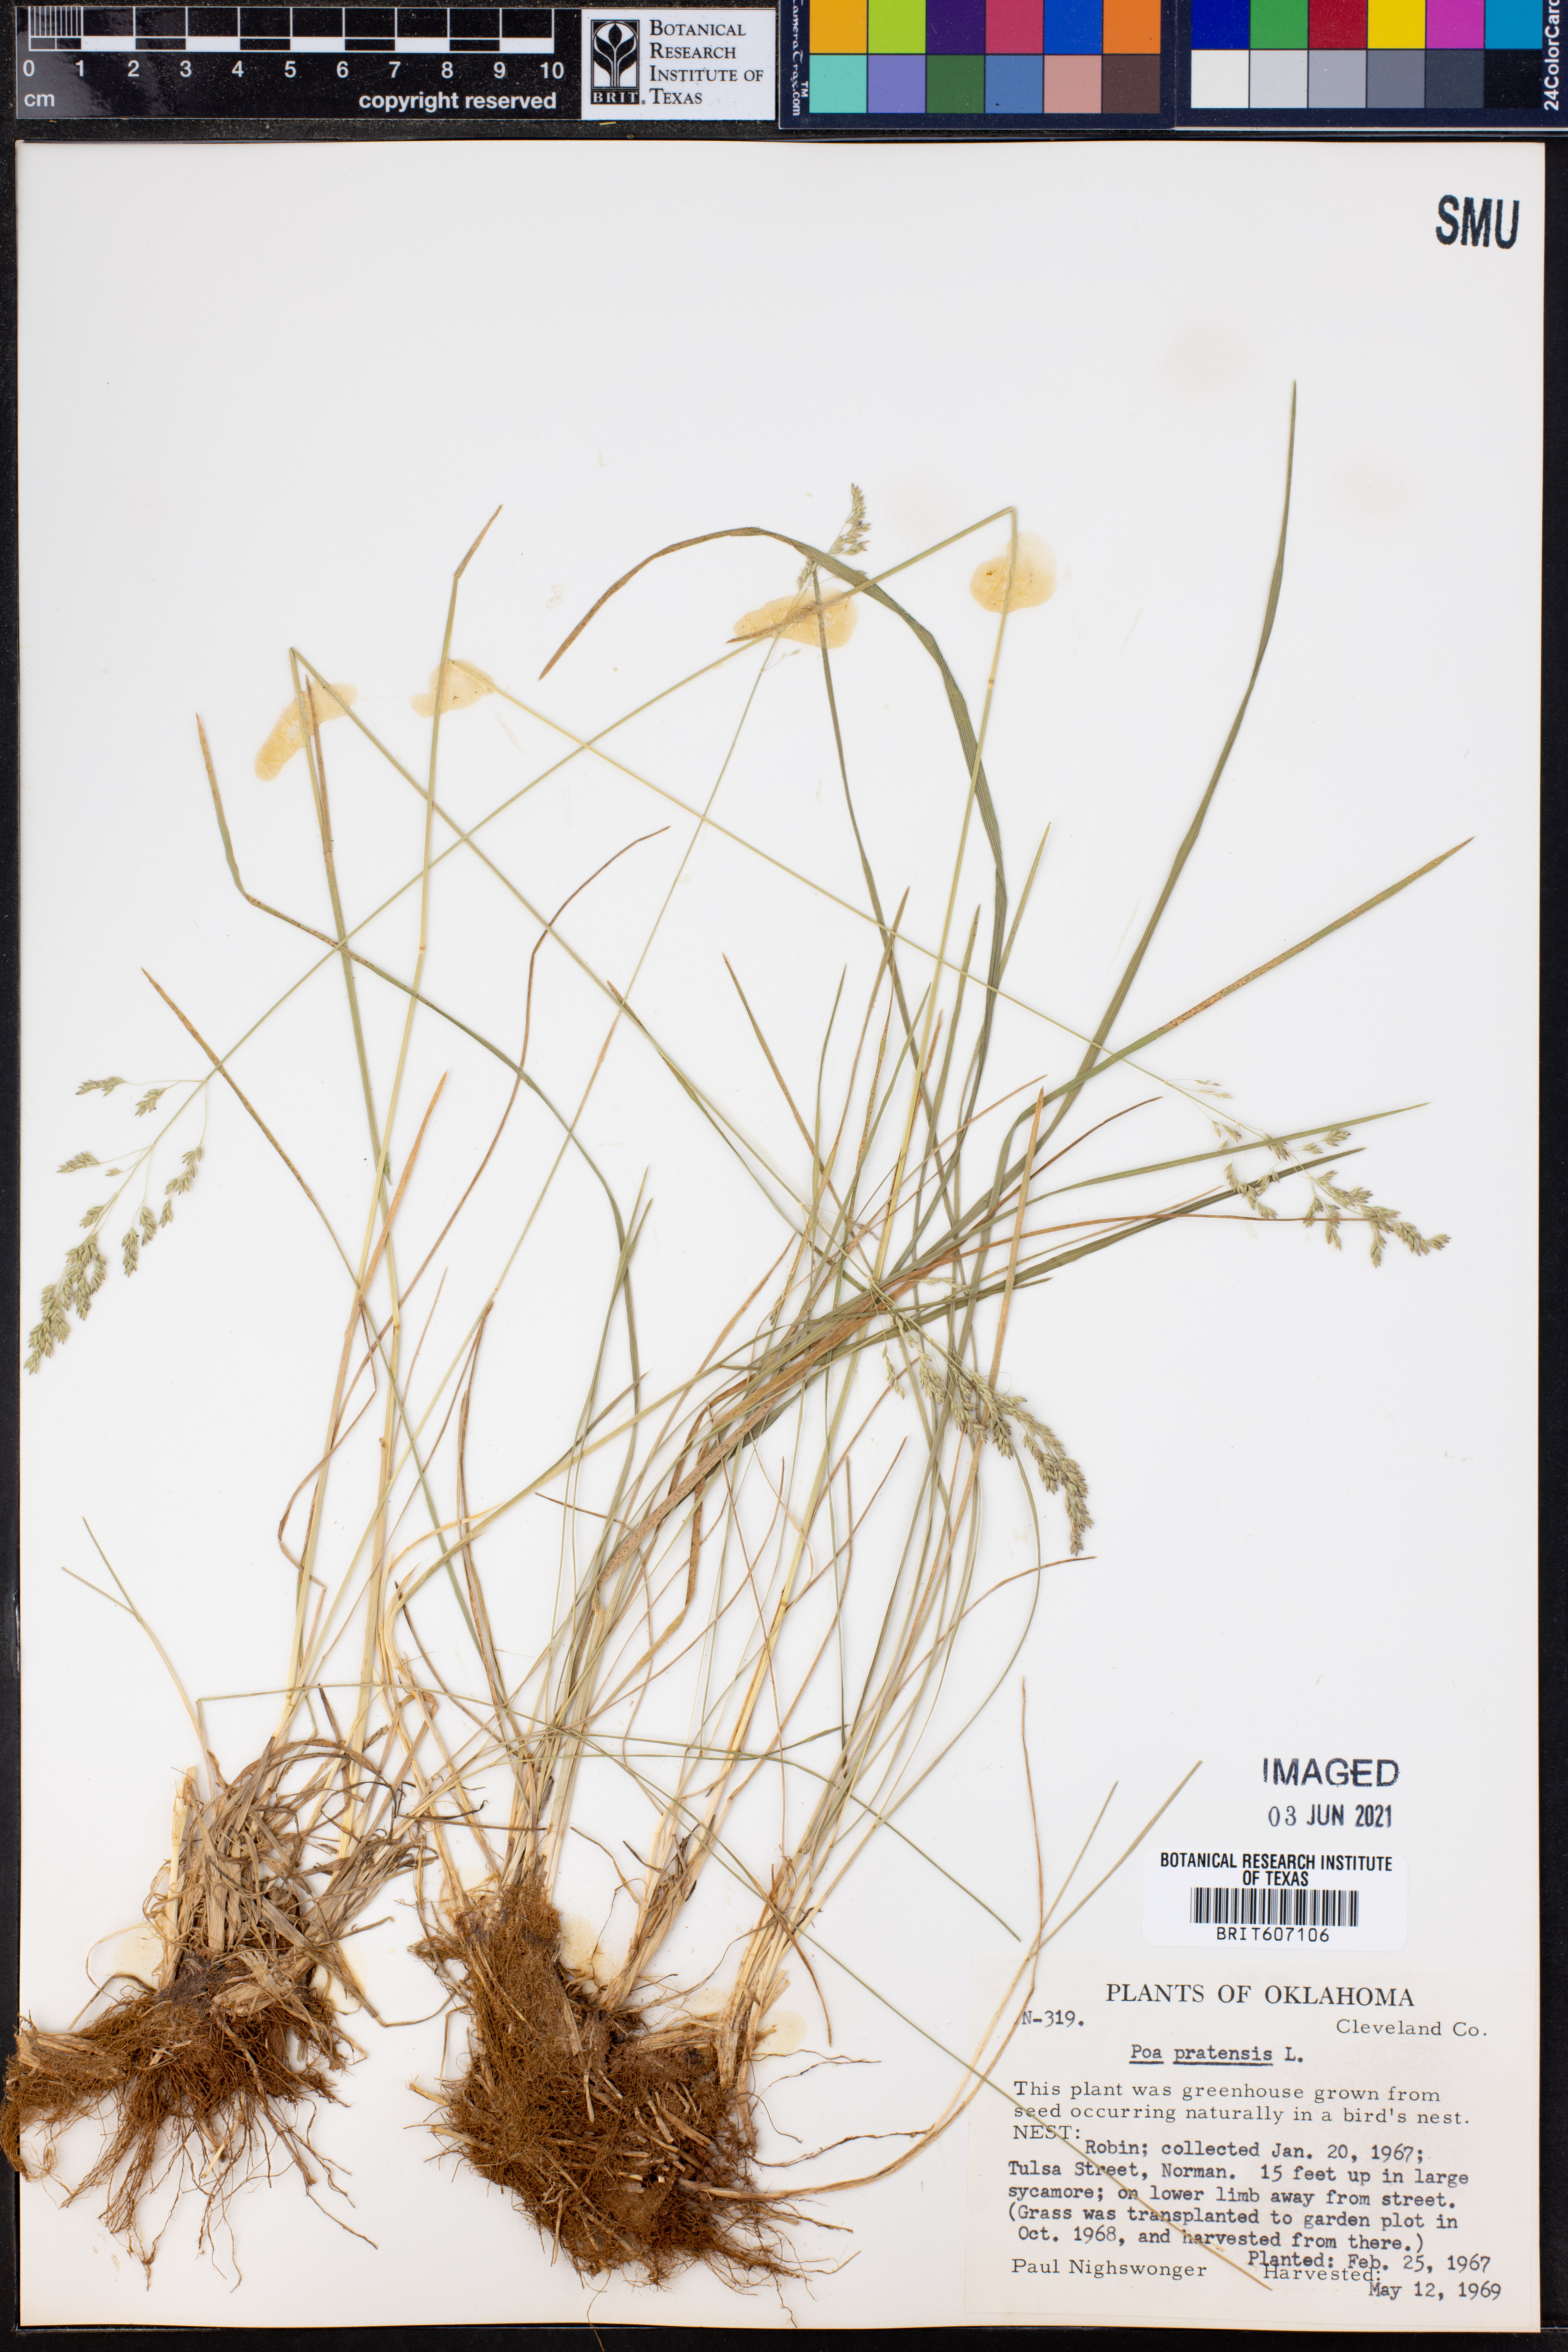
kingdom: Plantae
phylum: Tracheophyta
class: Liliopsida
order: Poales
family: Poaceae
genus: Poa
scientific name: Poa pratensis
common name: Kentucky bluegrass
